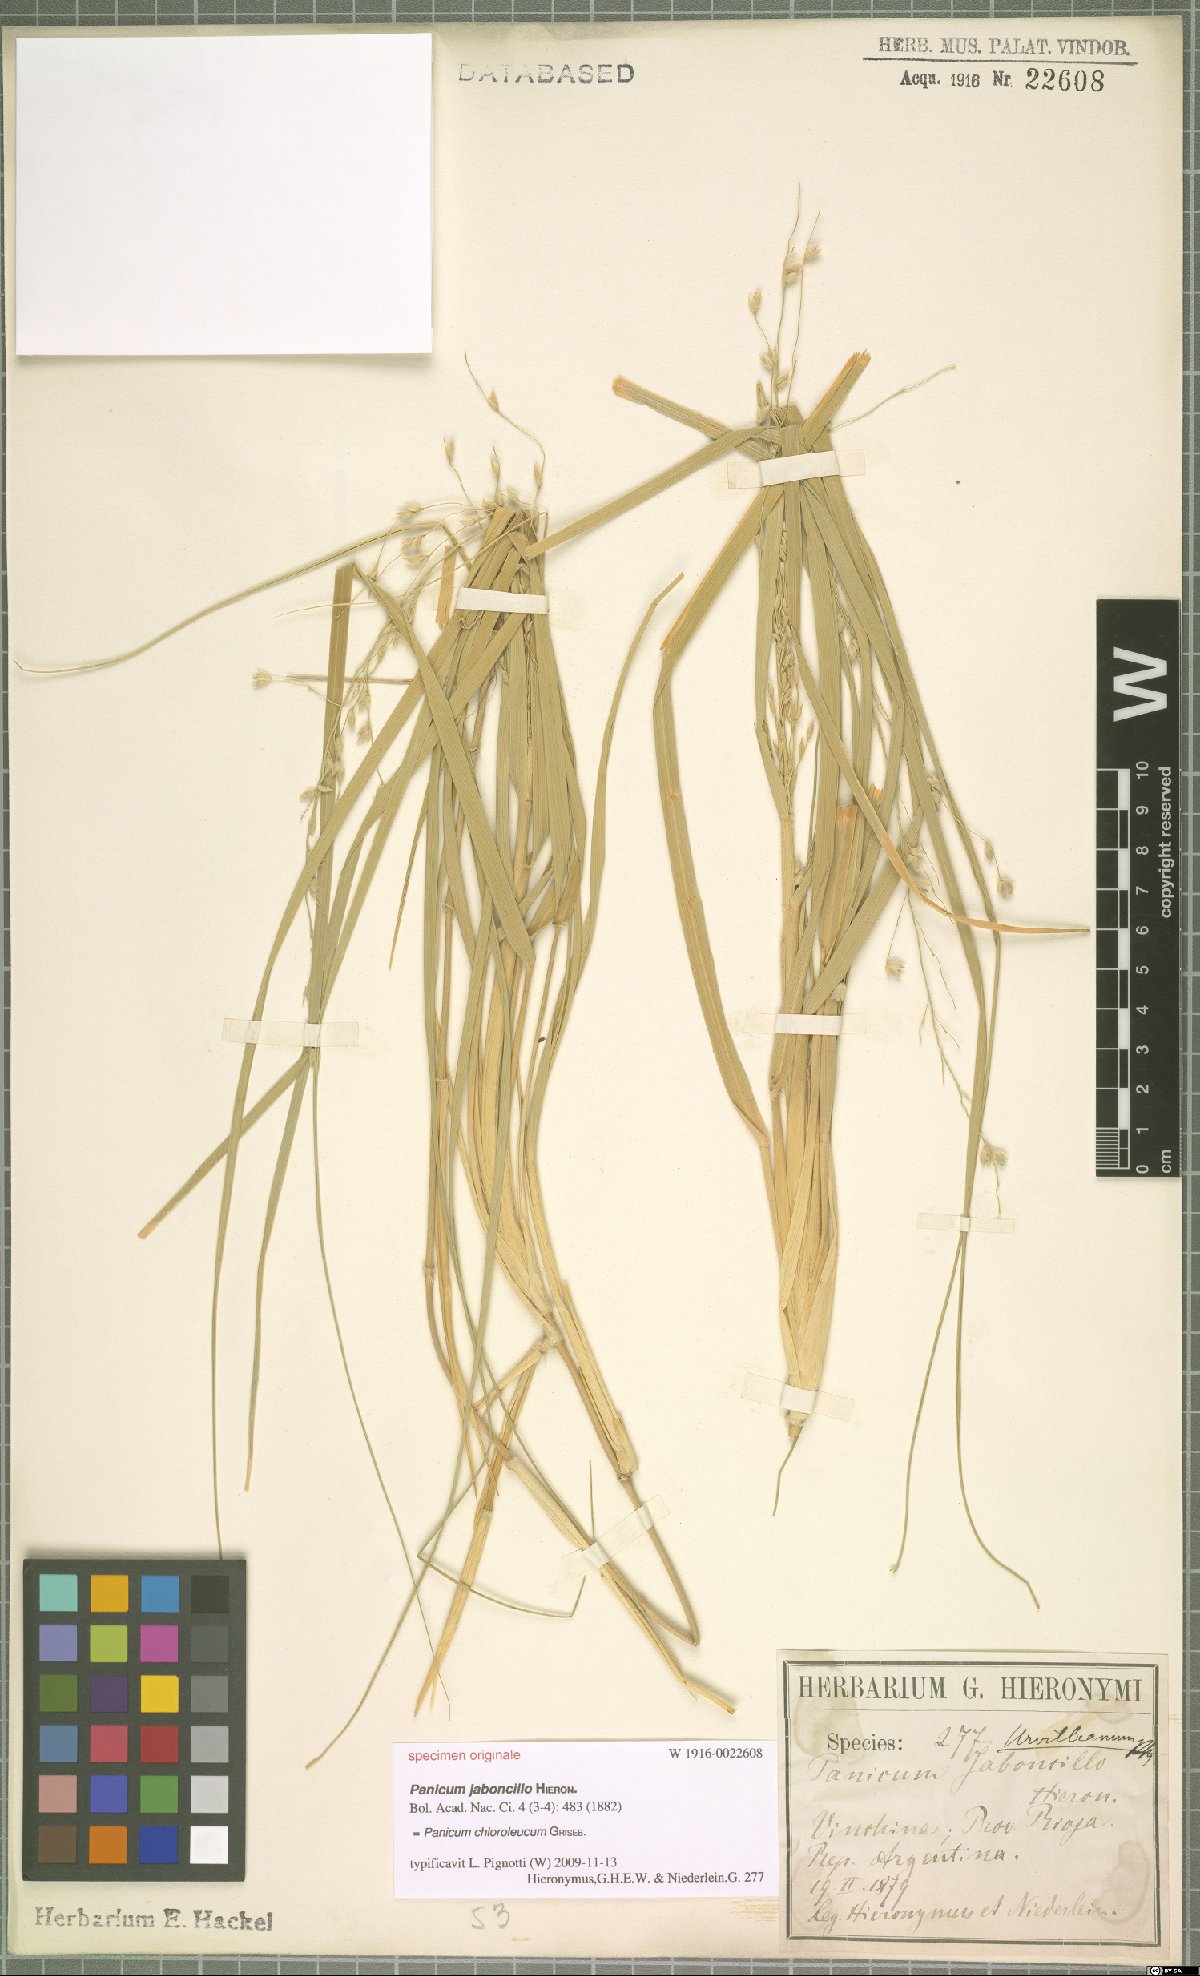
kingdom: Plantae
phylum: Tracheophyta
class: Liliopsida
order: Poales
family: Poaceae
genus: Panicum
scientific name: Panicum chloroleucum
